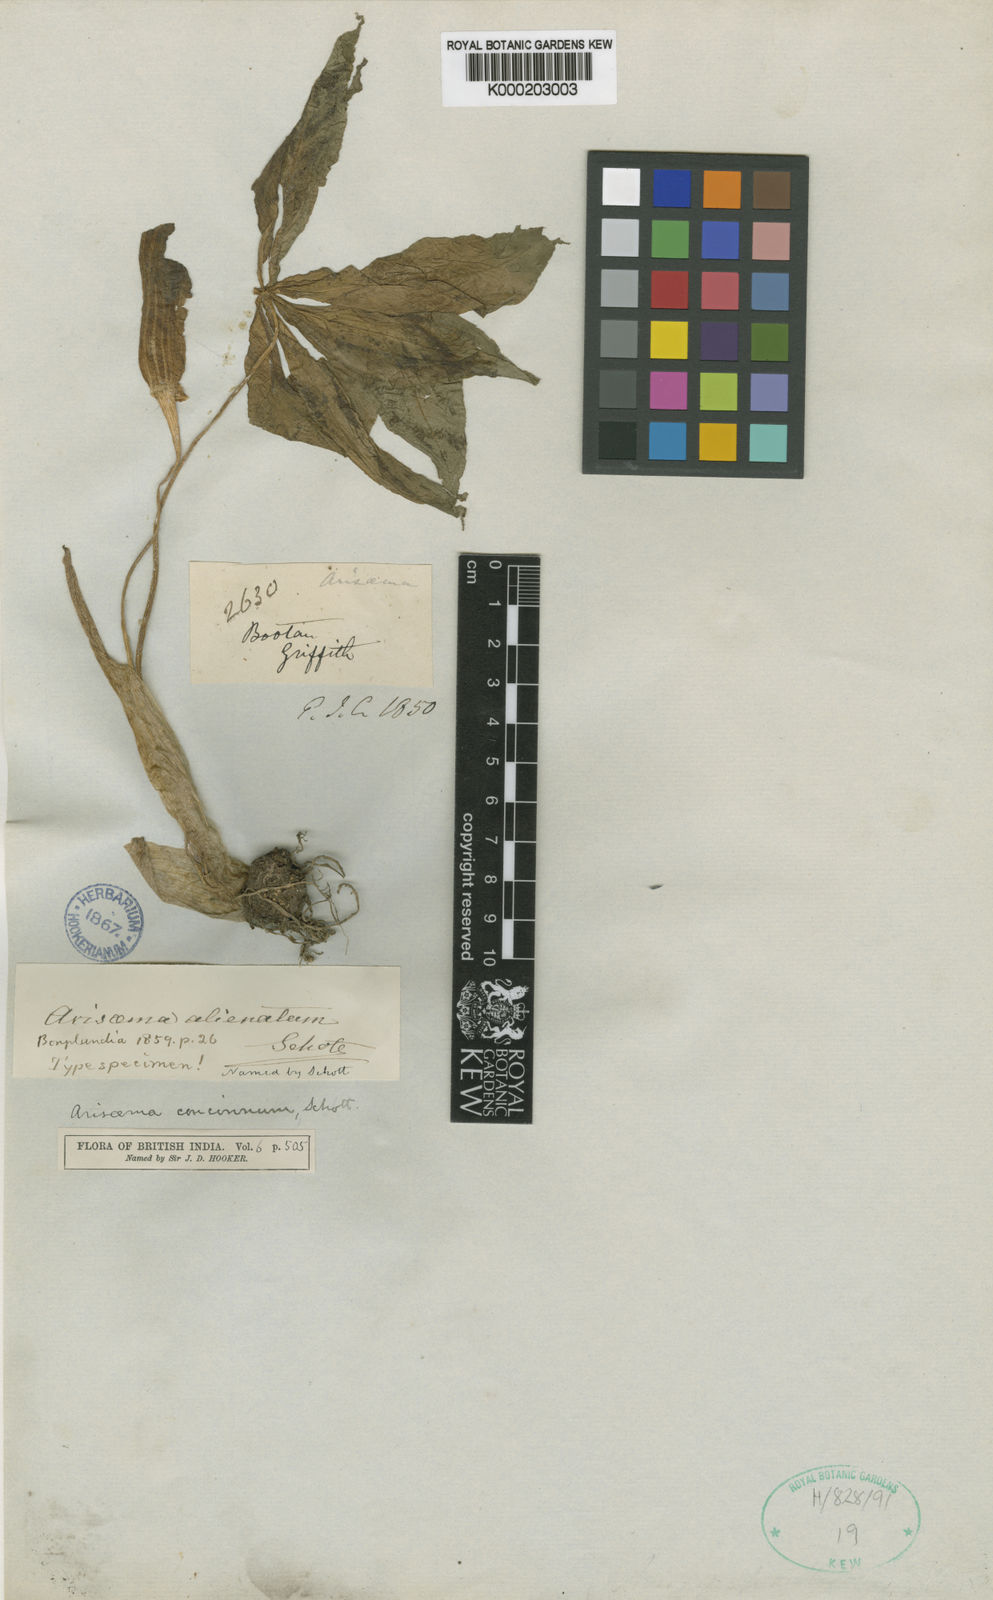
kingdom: Plantae
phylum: Tracheophyta
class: Liliopsida
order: Alismatales
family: Araceae
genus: Arisaema
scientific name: Arisaema concinnum
